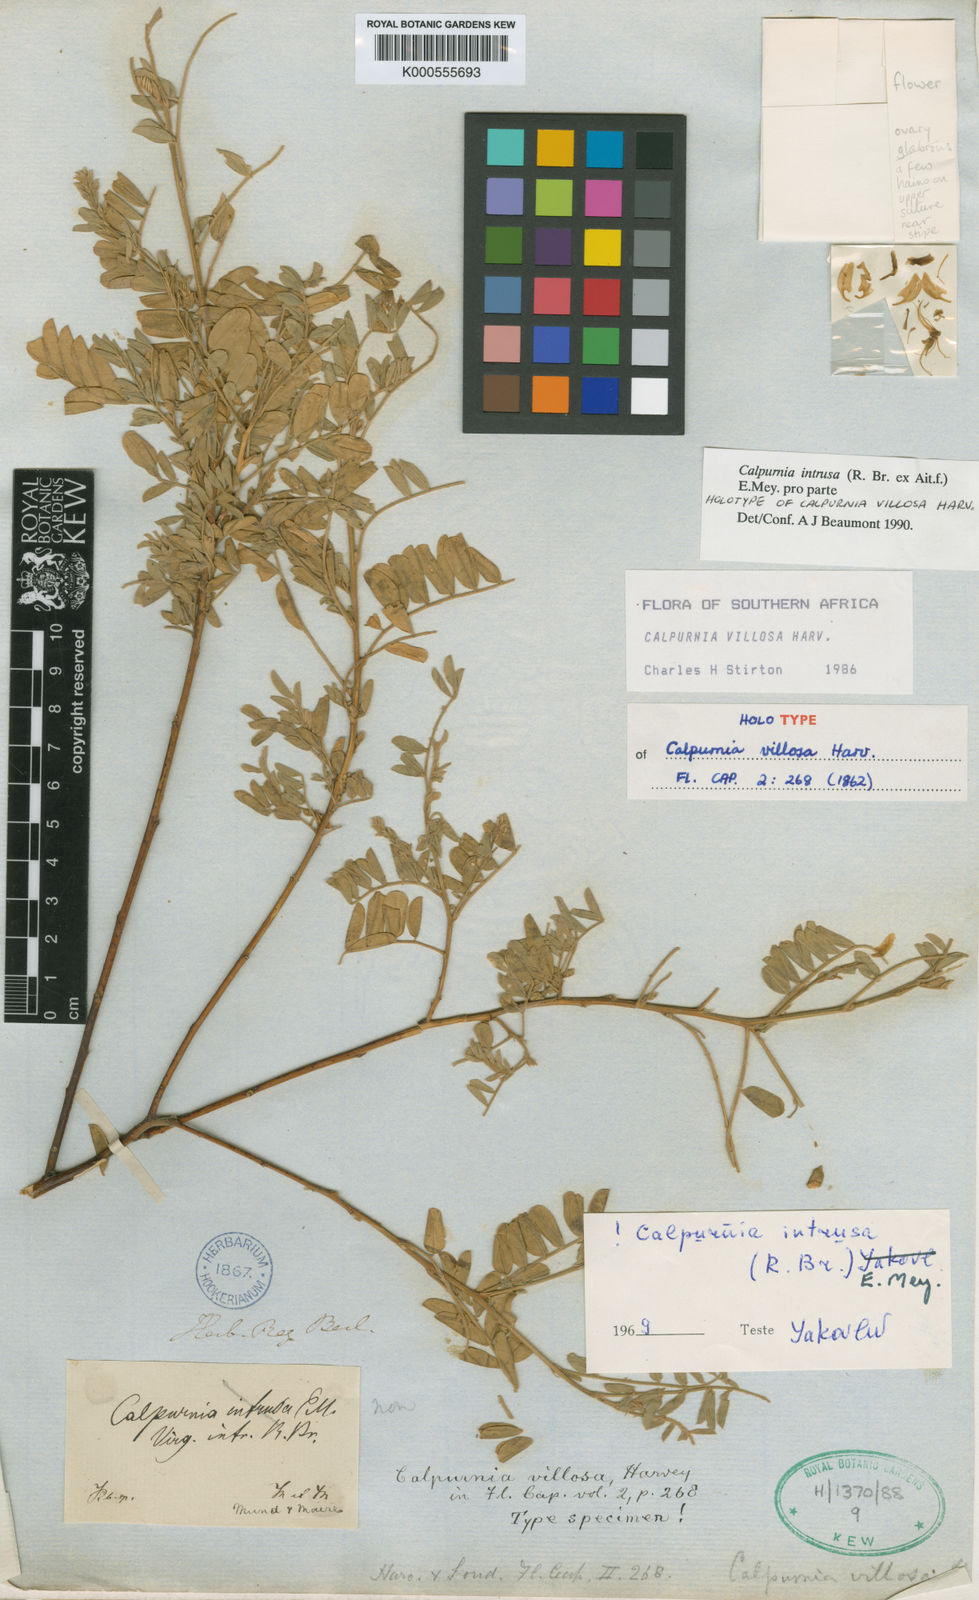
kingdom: Plantae
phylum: Tracheophyta
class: Magnoliopsida
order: Fabales
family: Fabaceae
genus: Calpurnia
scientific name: Calpurnia intrusa
